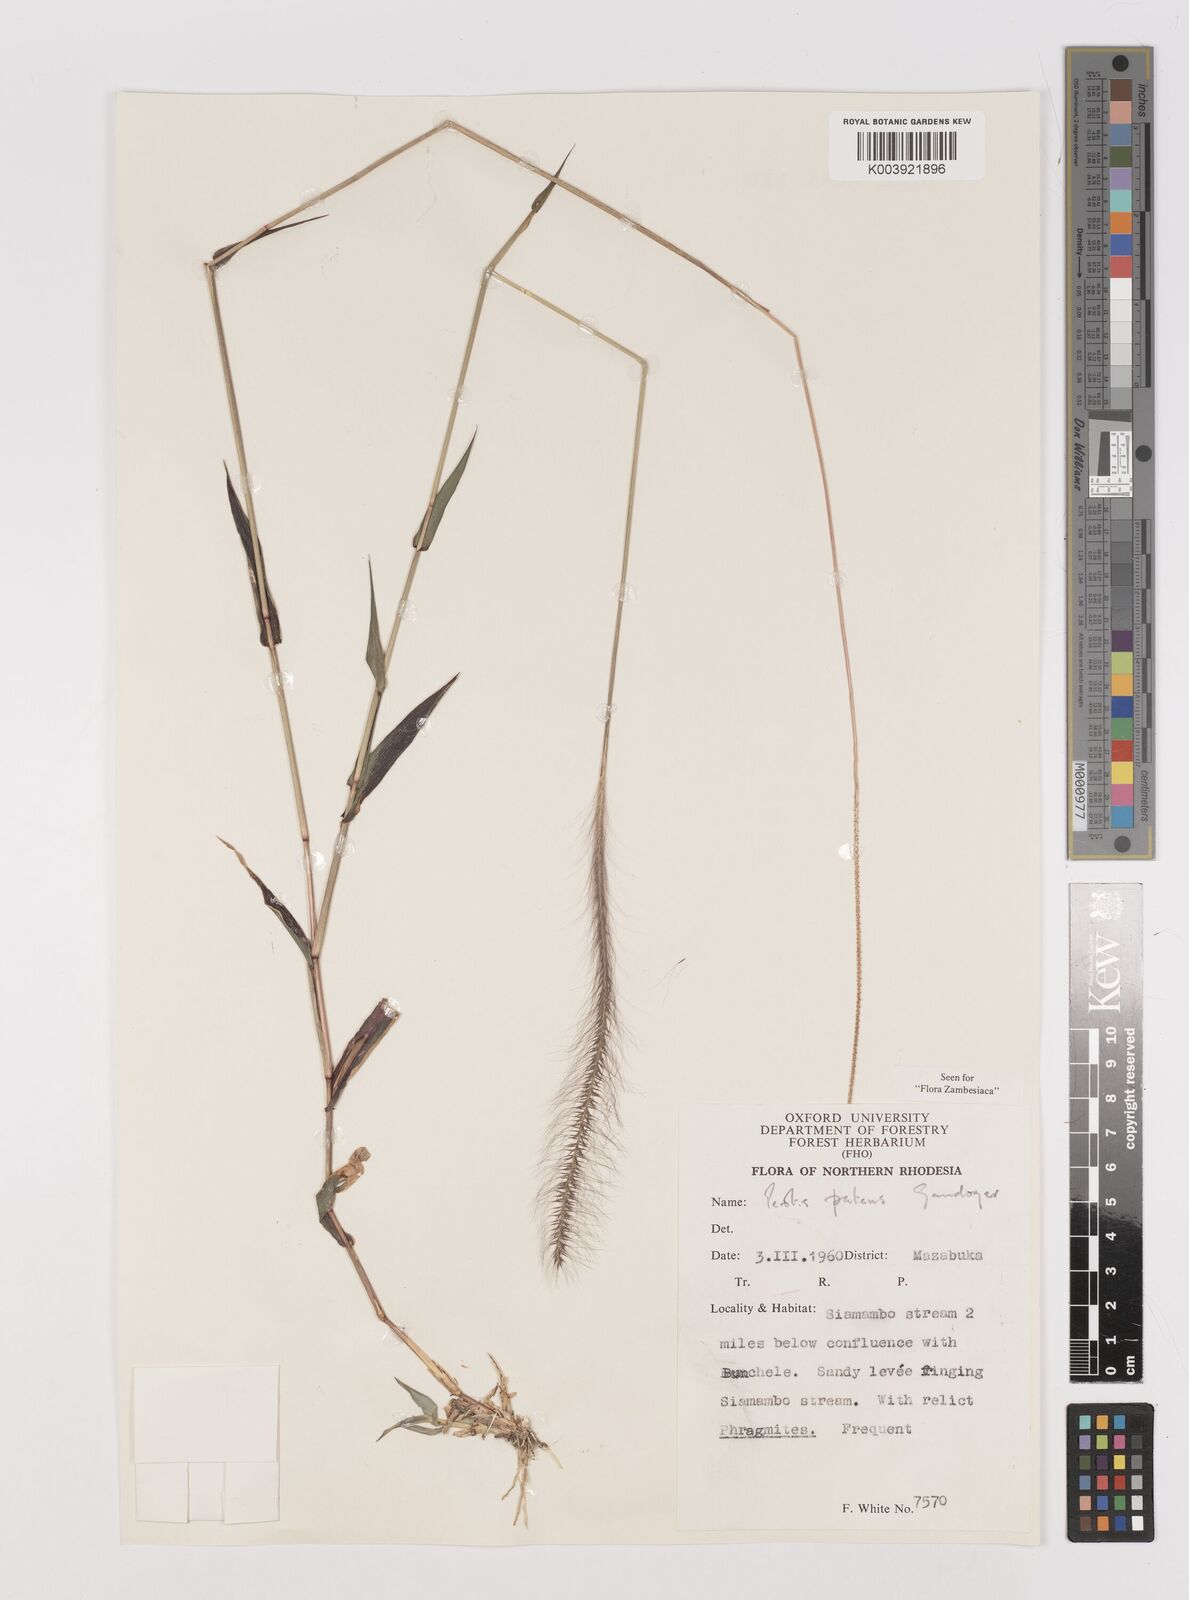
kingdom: Plantae
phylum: Tracheophyta
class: Liliopsida
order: Poales
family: Poaceae
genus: Perotis
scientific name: Perotis patens
